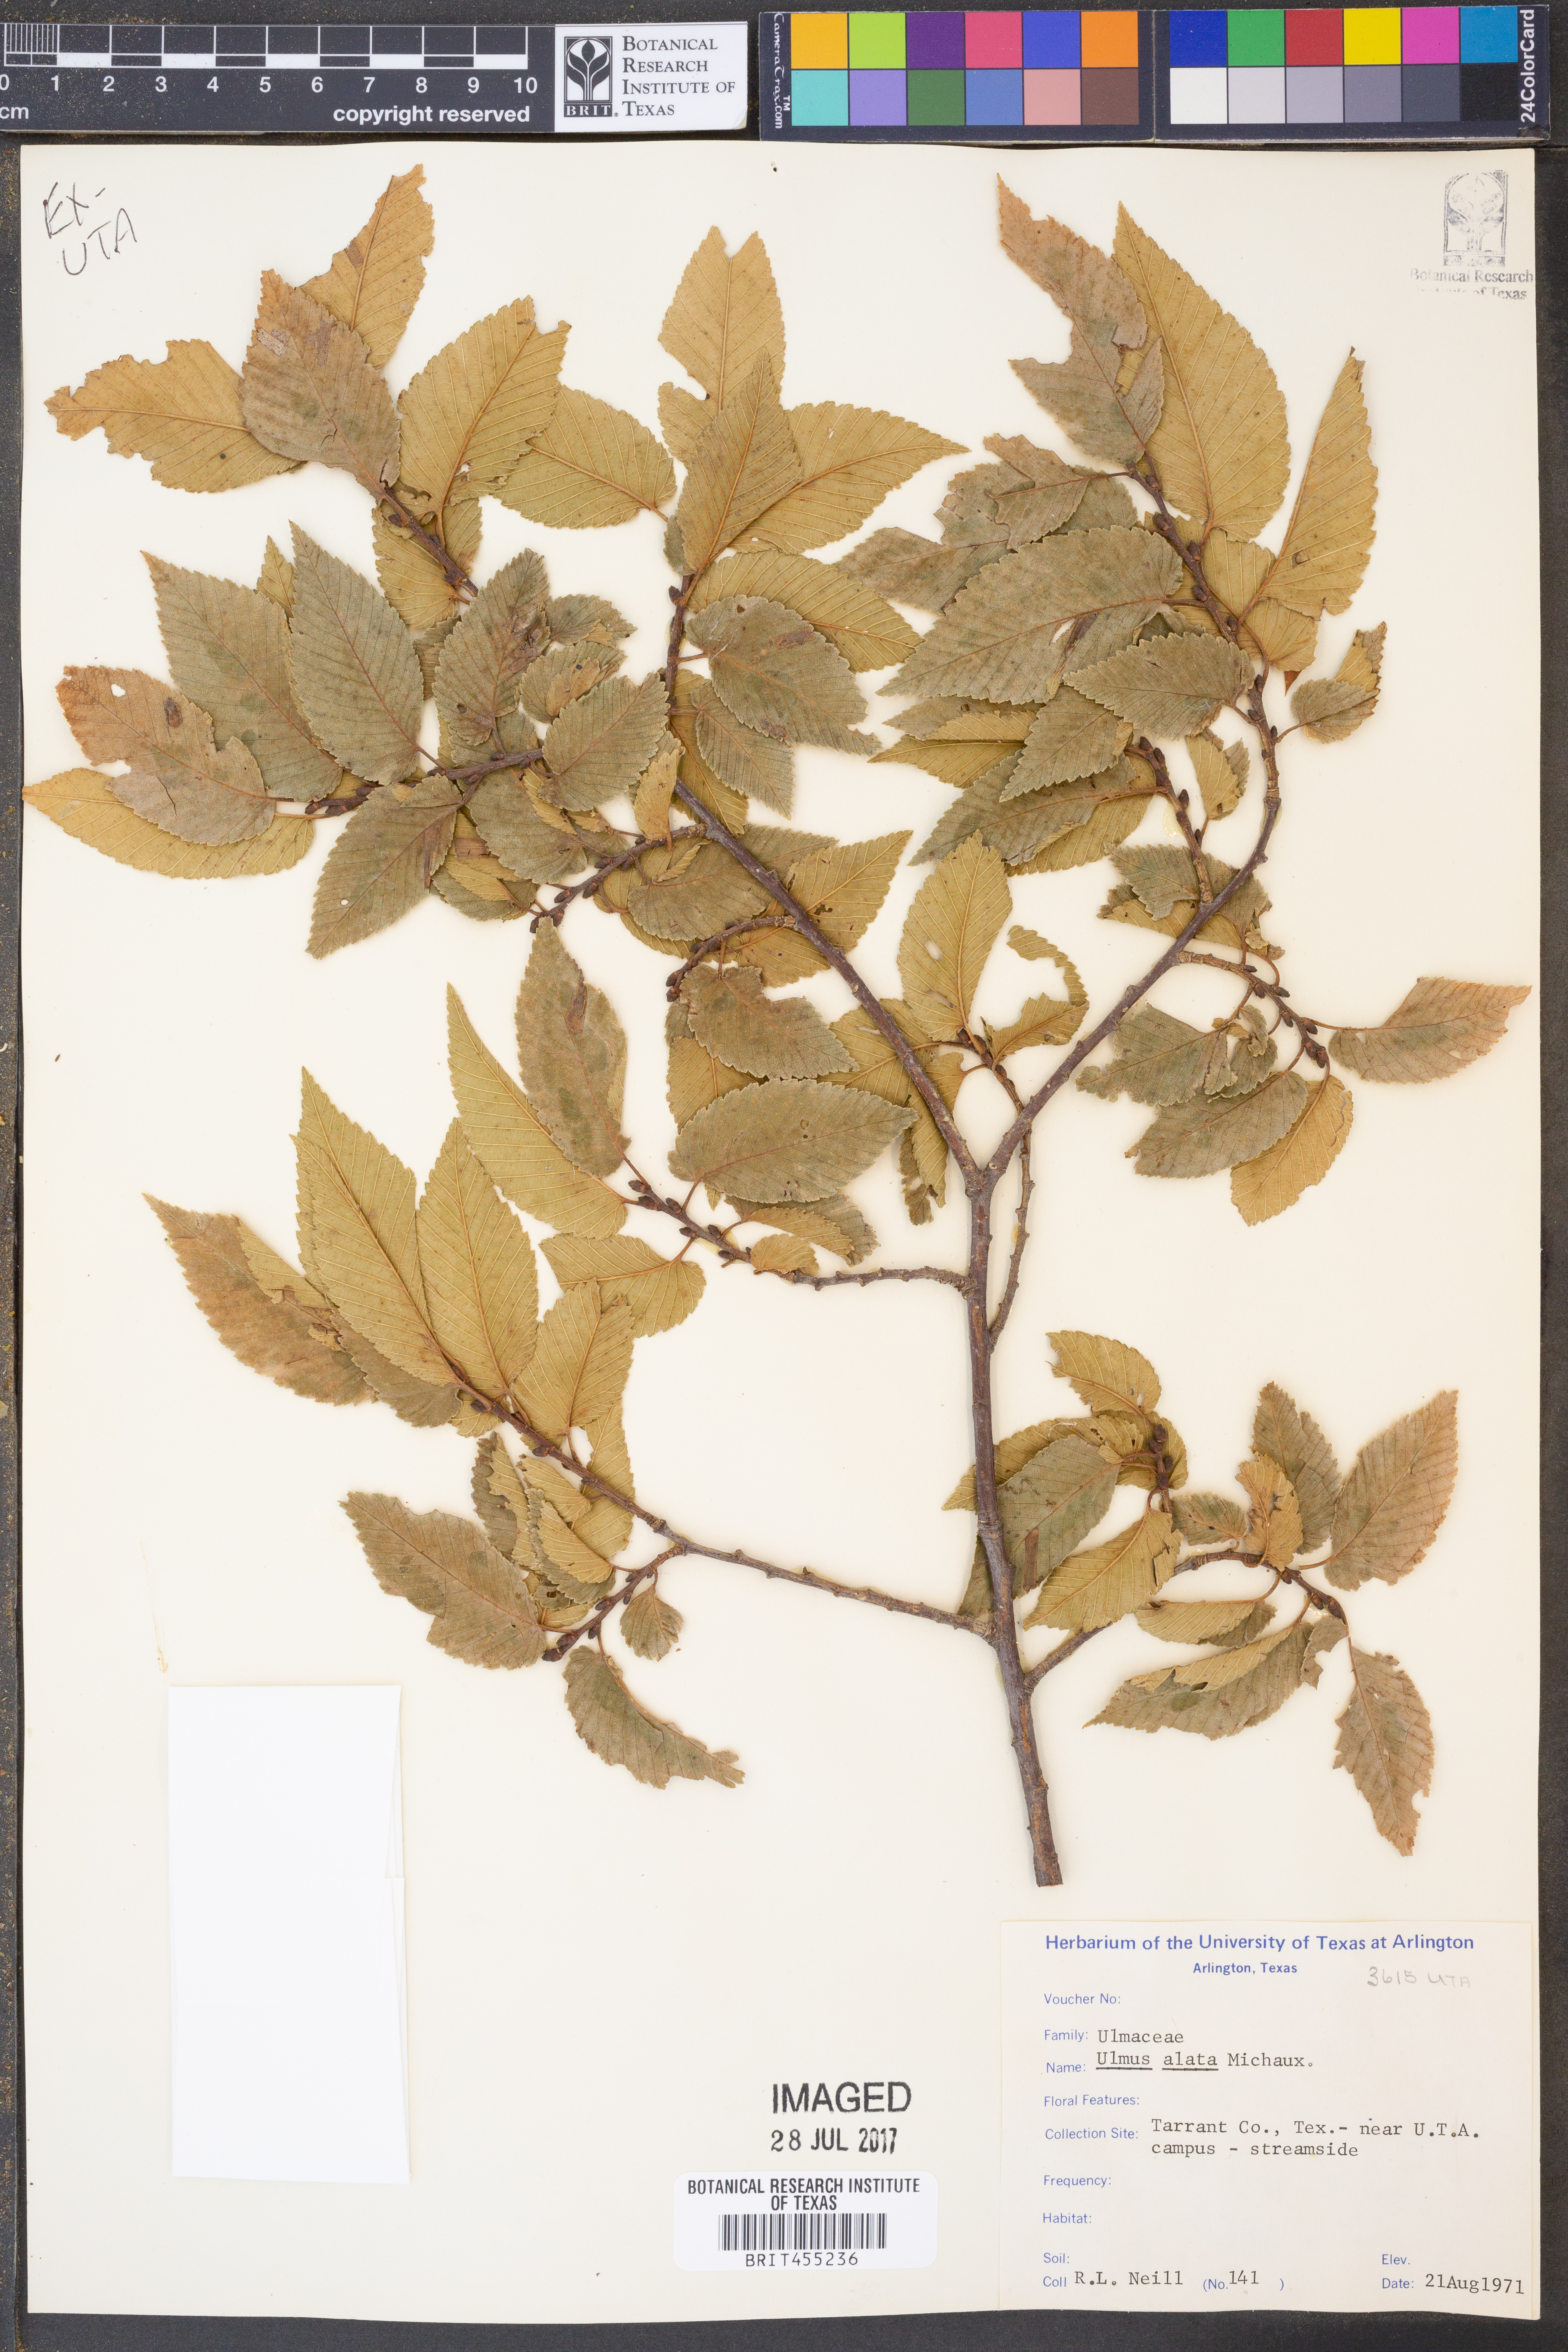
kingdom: Plantae
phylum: Tracheophyta
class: Magnoliopsida
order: Rosales
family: Ulmaceae
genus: Ulmus
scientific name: Ulmus alata
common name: Winged elm
